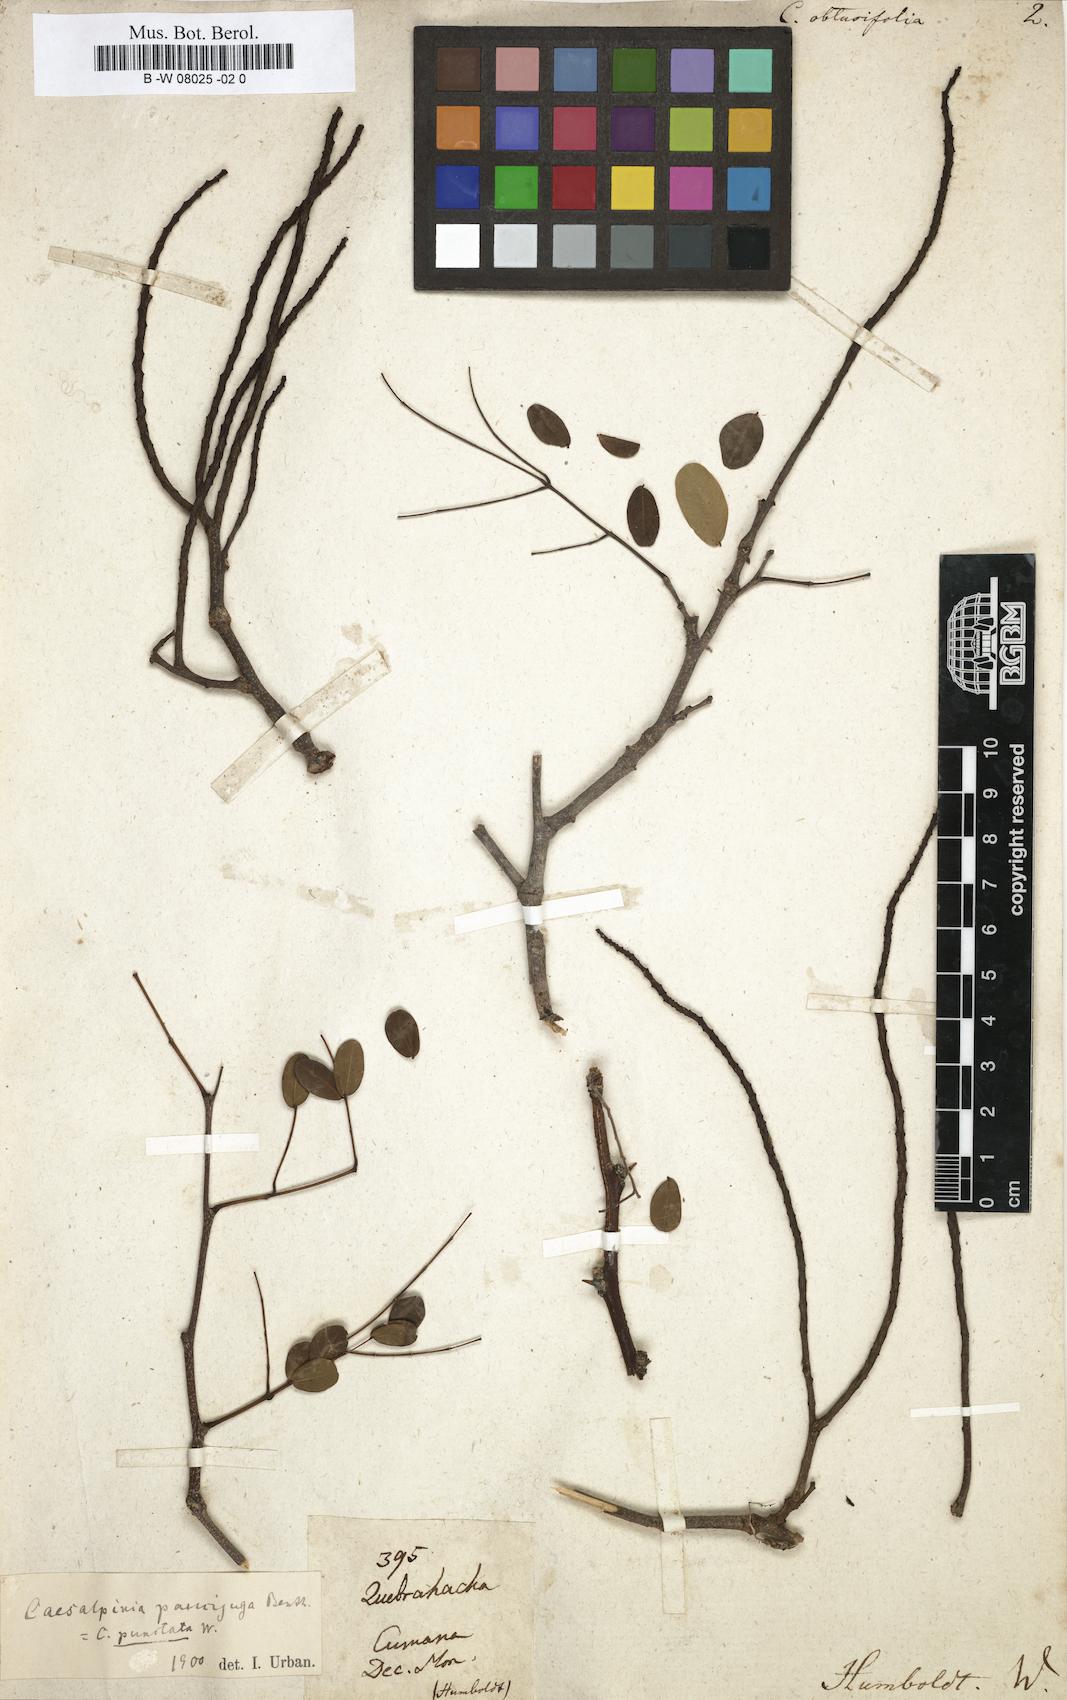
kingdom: Plantae
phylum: Tracheophyta
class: Magnoliopsida
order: Fabales
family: Fabaceae
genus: Caesalpinia
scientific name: Caesalpinia
